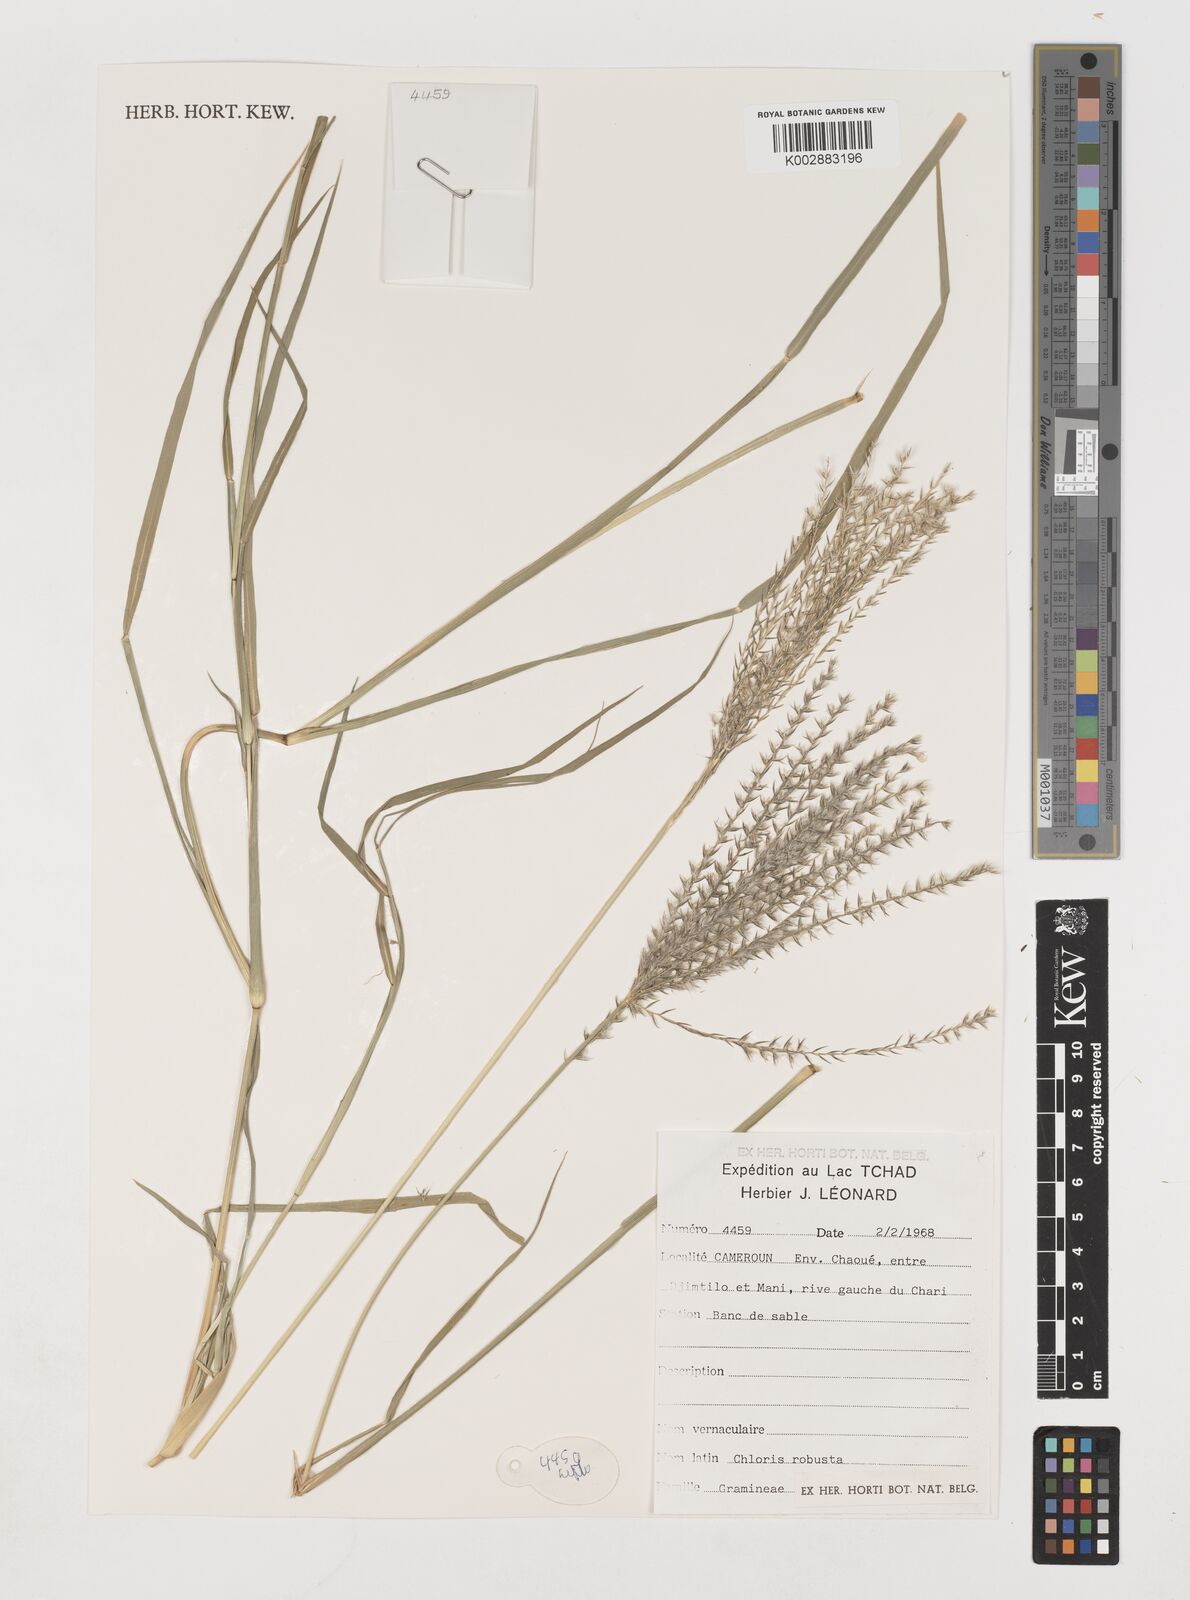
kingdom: Plantae
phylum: Tracheophyta
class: Liliopsida
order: Poales
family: Poaceae
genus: Chloris
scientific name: Chloris robusta
